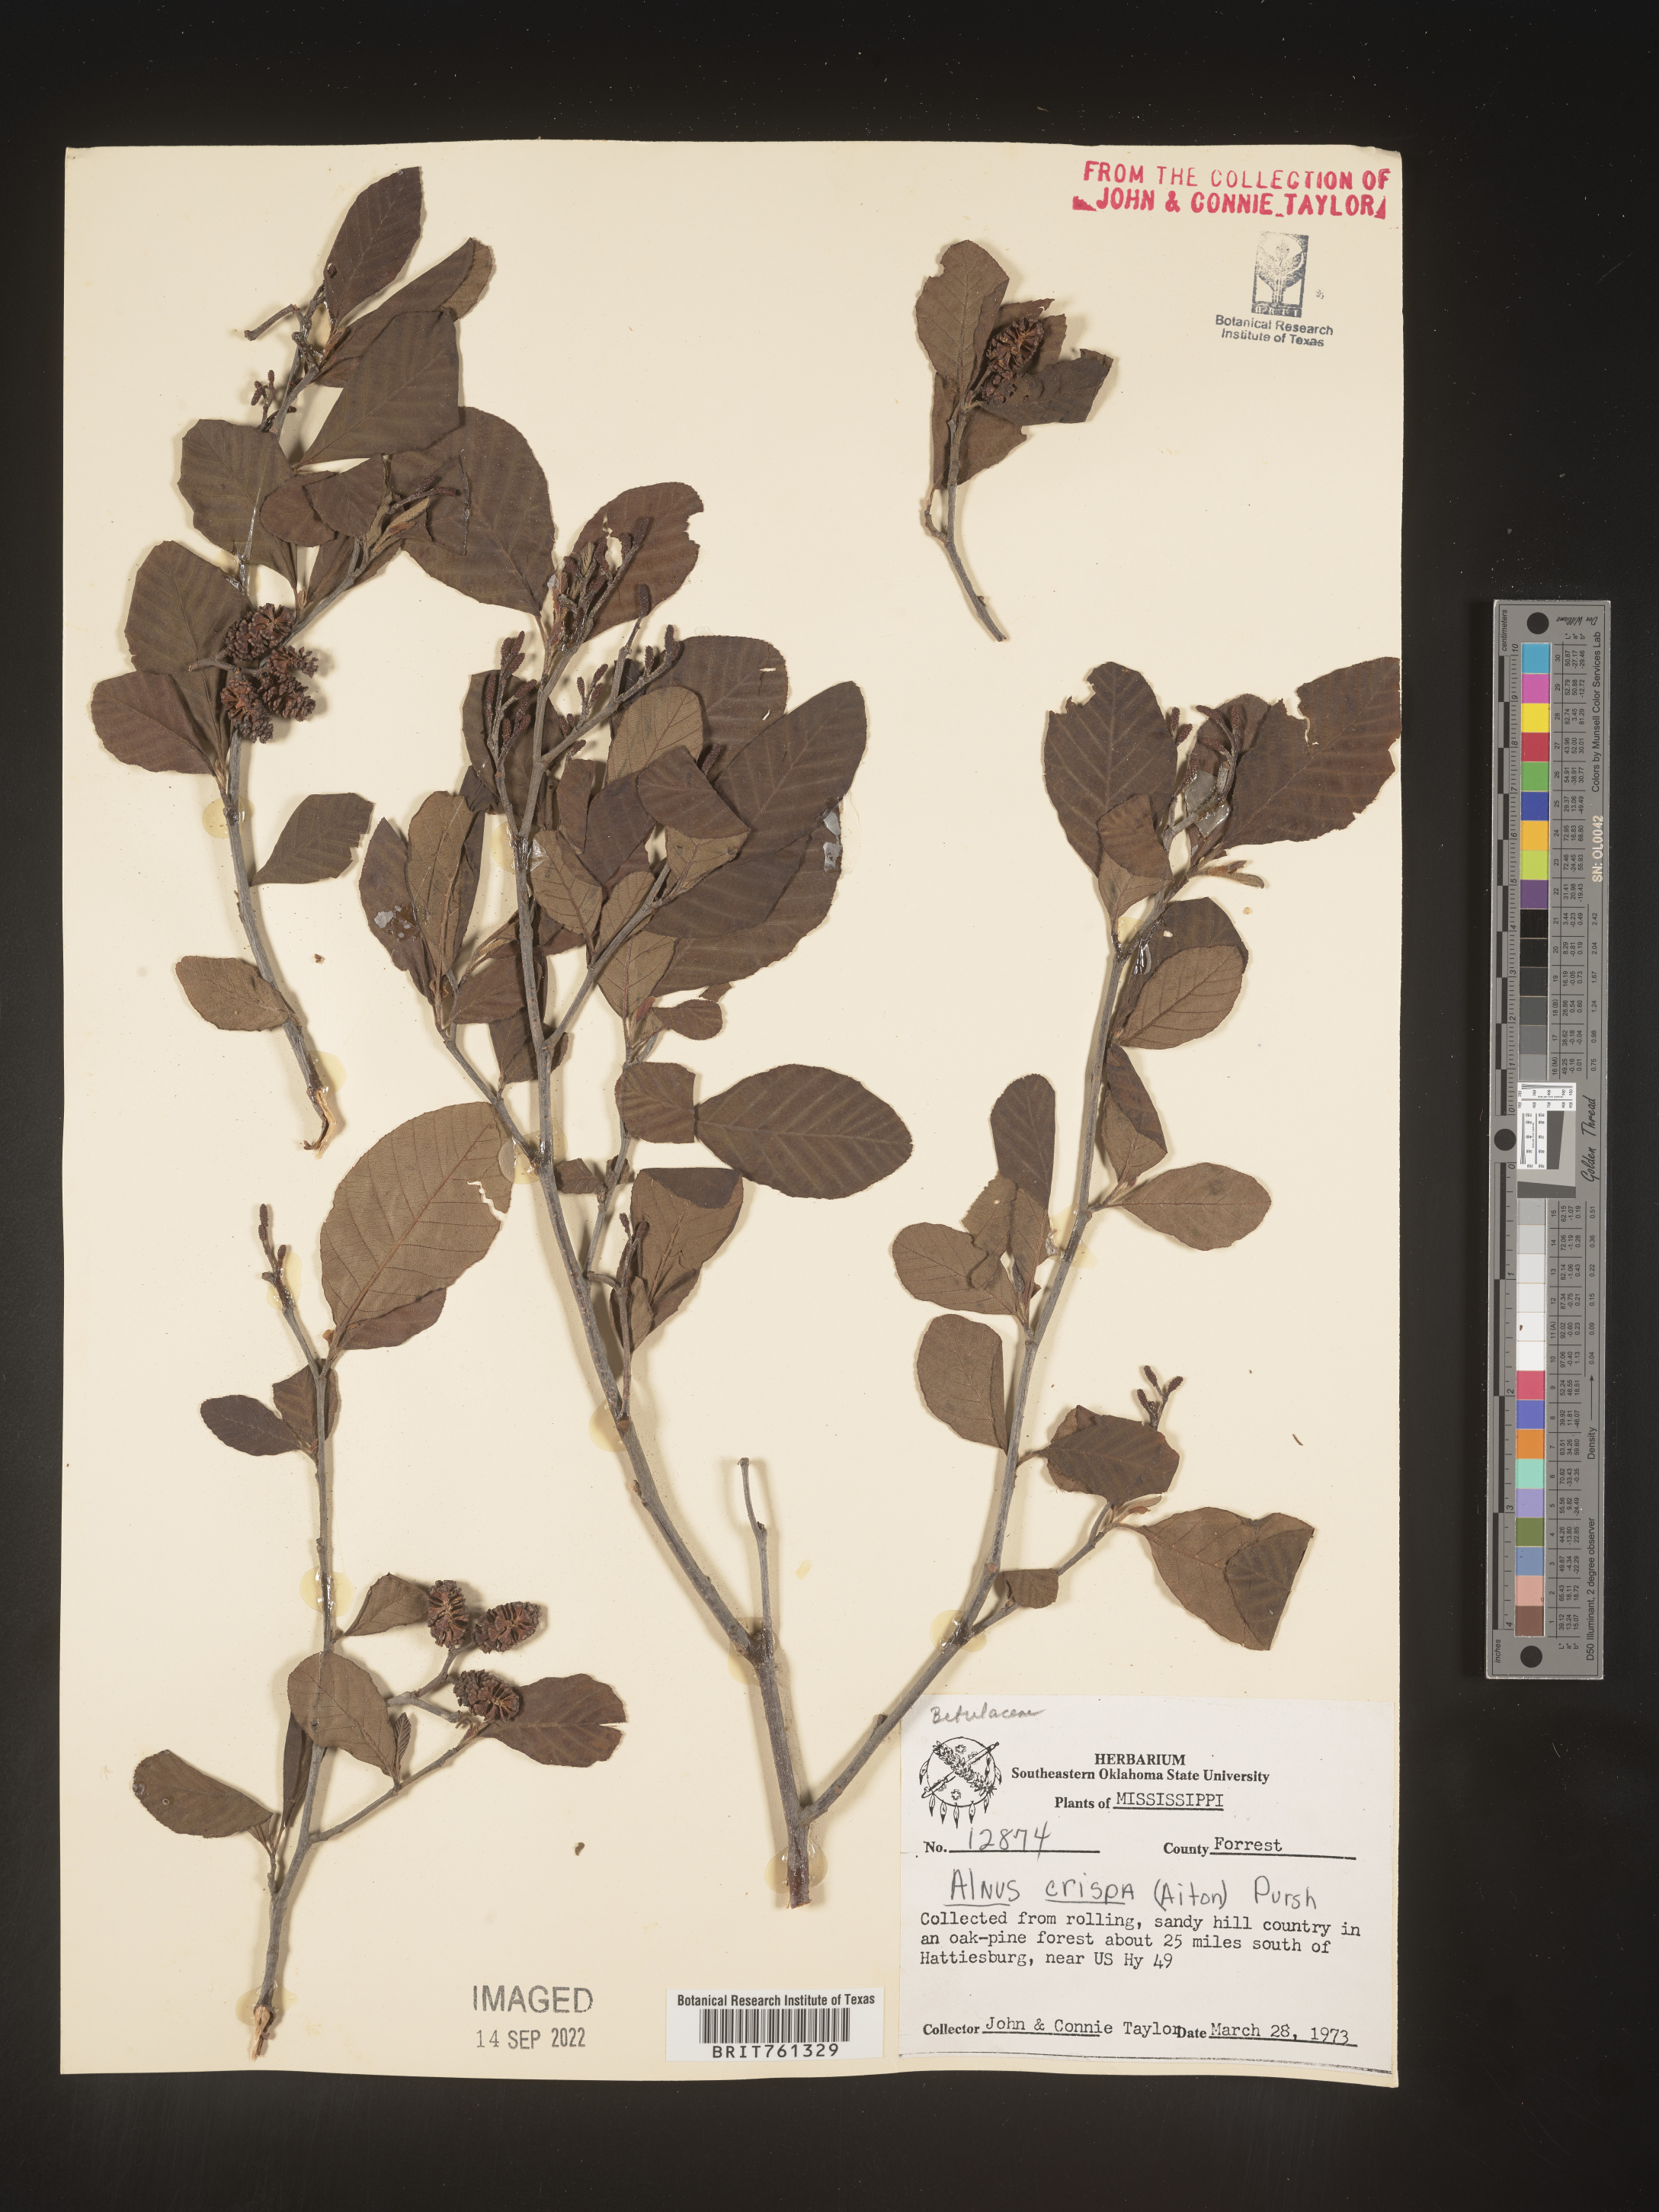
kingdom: Plantae
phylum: Tracheophyta
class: Magnoliopsida
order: Fagales
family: Betulaceae
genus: Alnus
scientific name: Alnus
